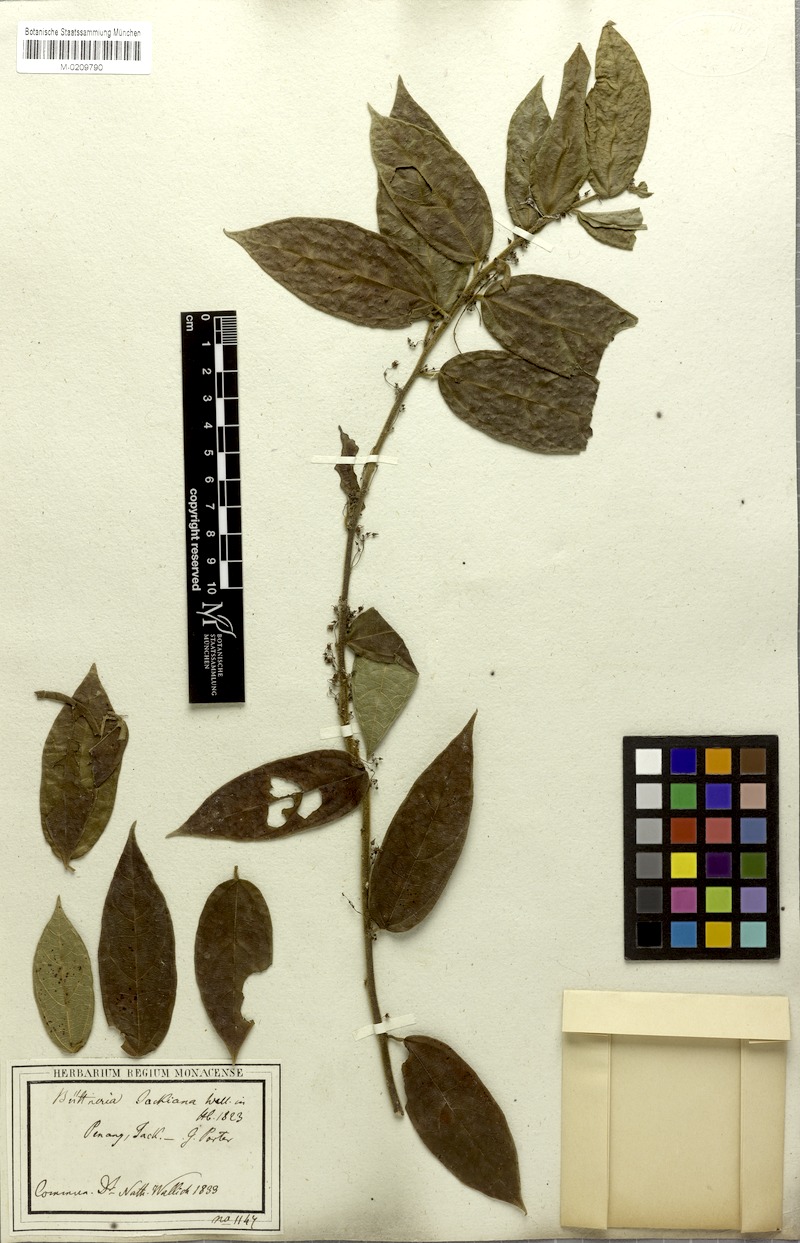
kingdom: Plantae
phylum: Tracheophyta
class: Magnoliopsida
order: Malvales
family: Malvaceae
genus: Byttneria
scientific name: Byttneria jackiana
